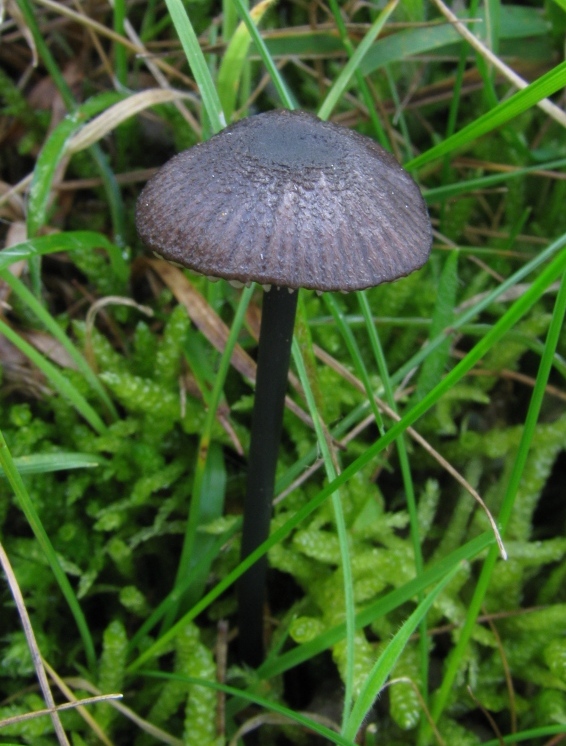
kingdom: Fungi
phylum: Basidiomycota
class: Agaricomycetes
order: Agaricales
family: Entolomataceae
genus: Entoloma
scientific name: Entoloma poliopus
